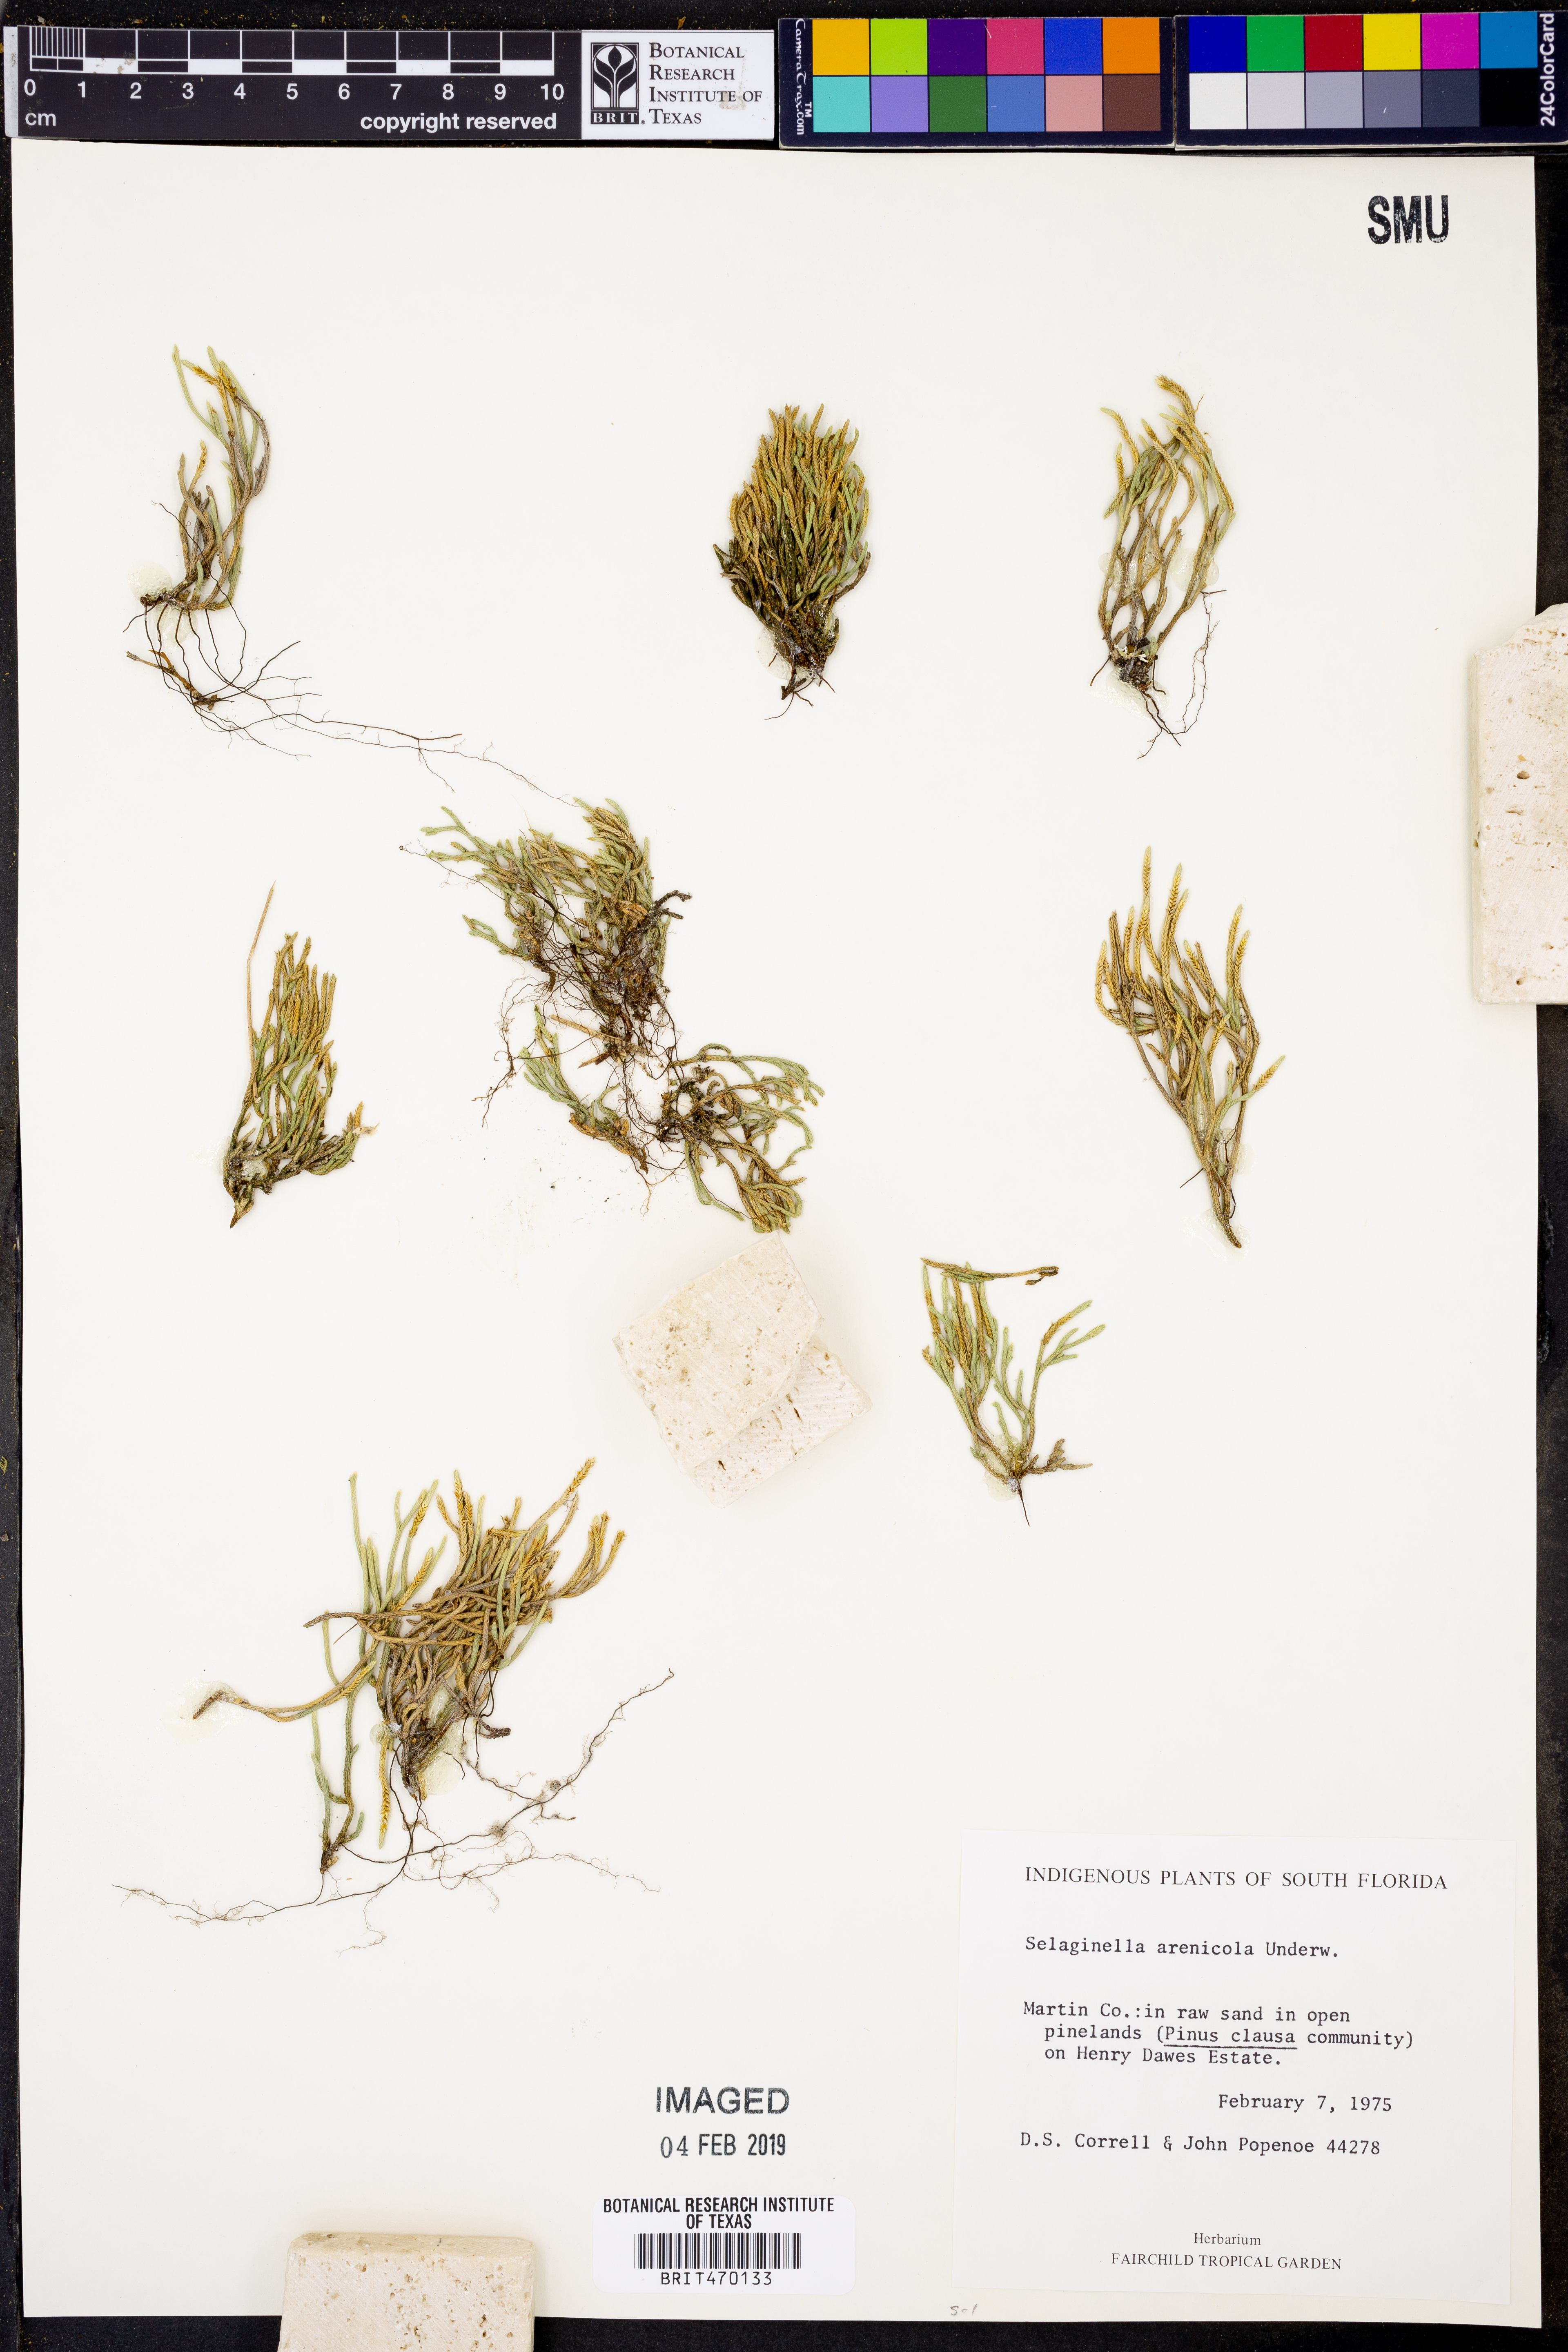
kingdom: Plantae
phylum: Tracheophyta
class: Lycopodiopsida
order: Selaginellales
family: Selaginellaceae
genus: Selaginella
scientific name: Selaginella arenicola
